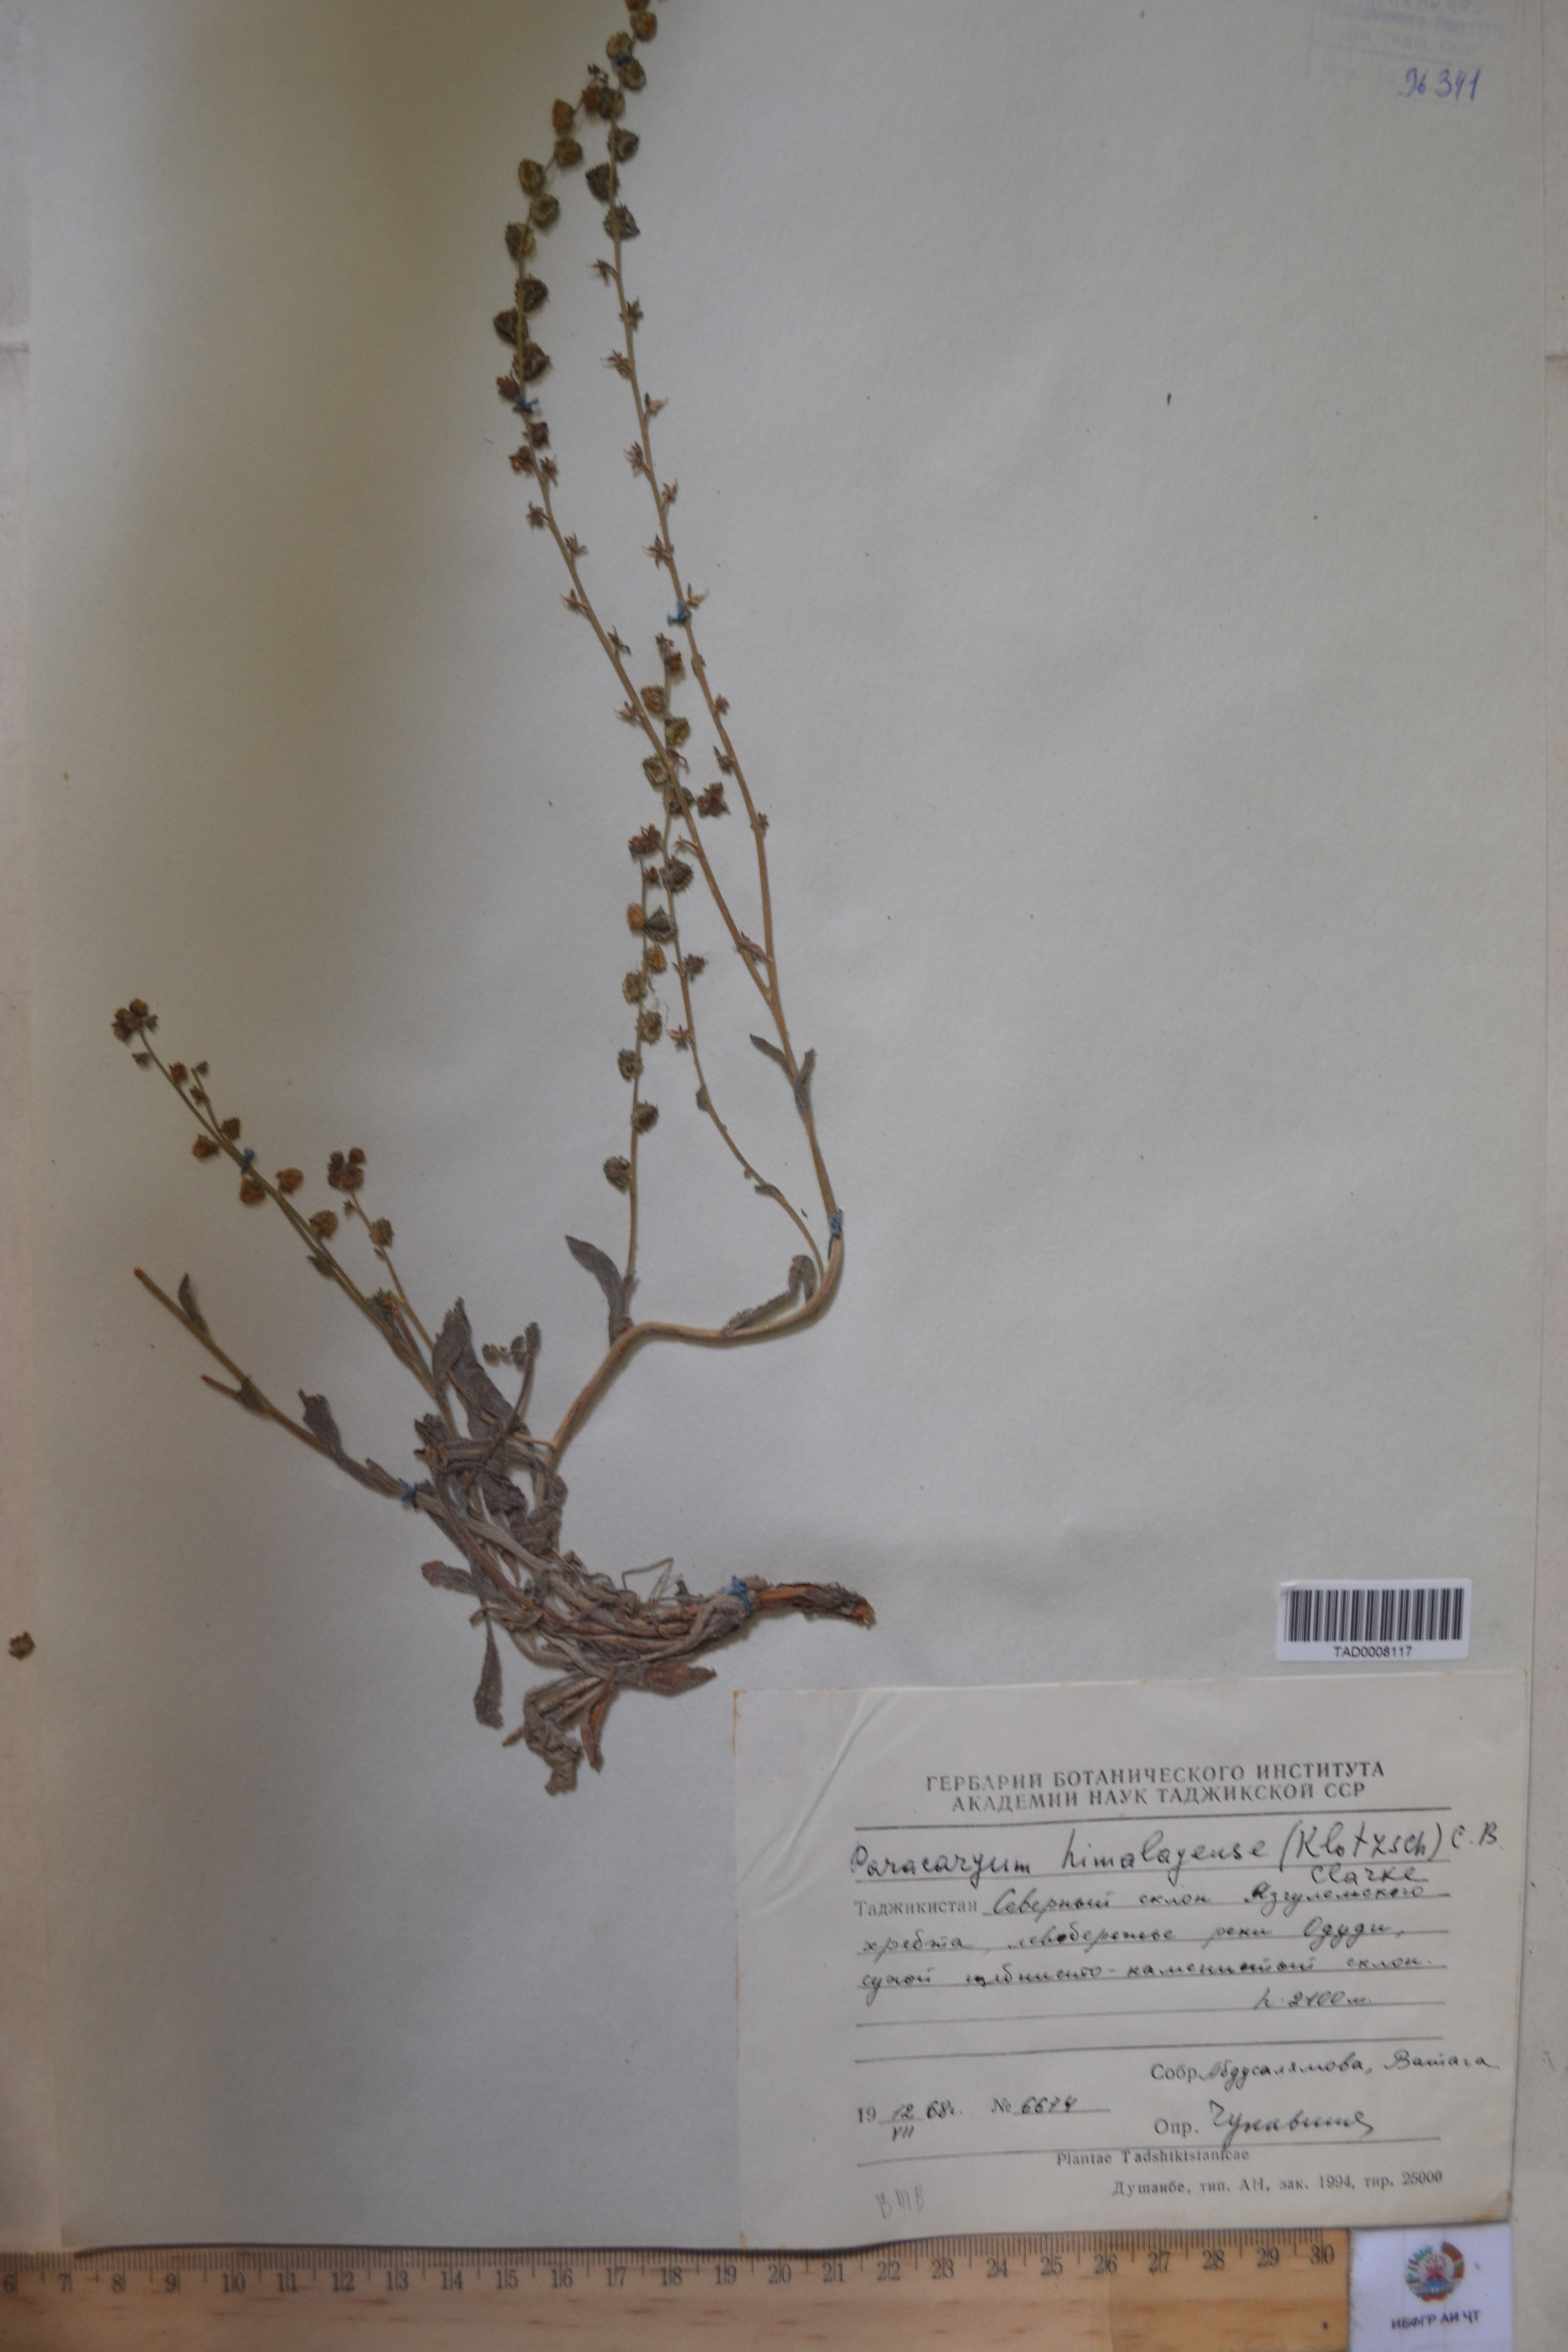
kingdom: Plantae
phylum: Tracheophyta
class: Magnoliopsida
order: Boraginales
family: Boraginaceae
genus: Paracaryum
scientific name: Paracaryum himalayense
